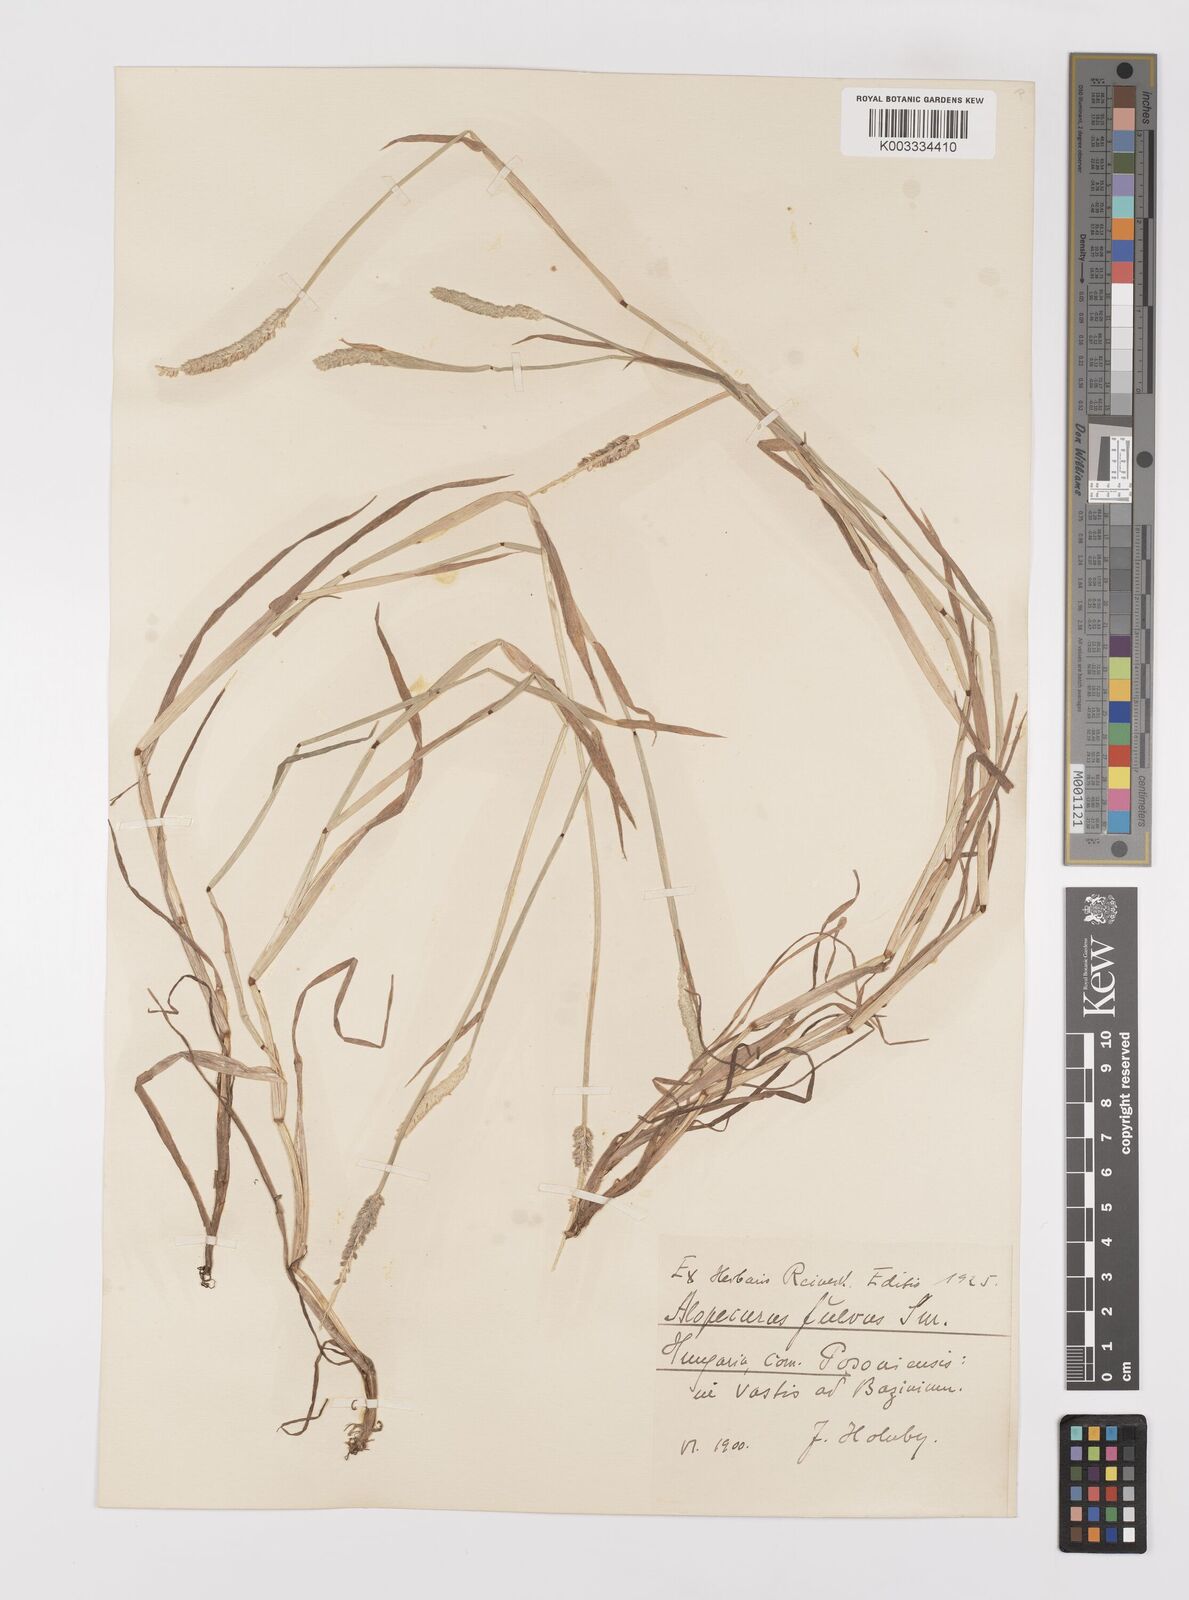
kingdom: Plantae
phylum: Tracheophyta
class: Liliopsida
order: Poales
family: Poaceae
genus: Alopecurus
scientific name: Alopecurus aequalis
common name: Orange foxtail
